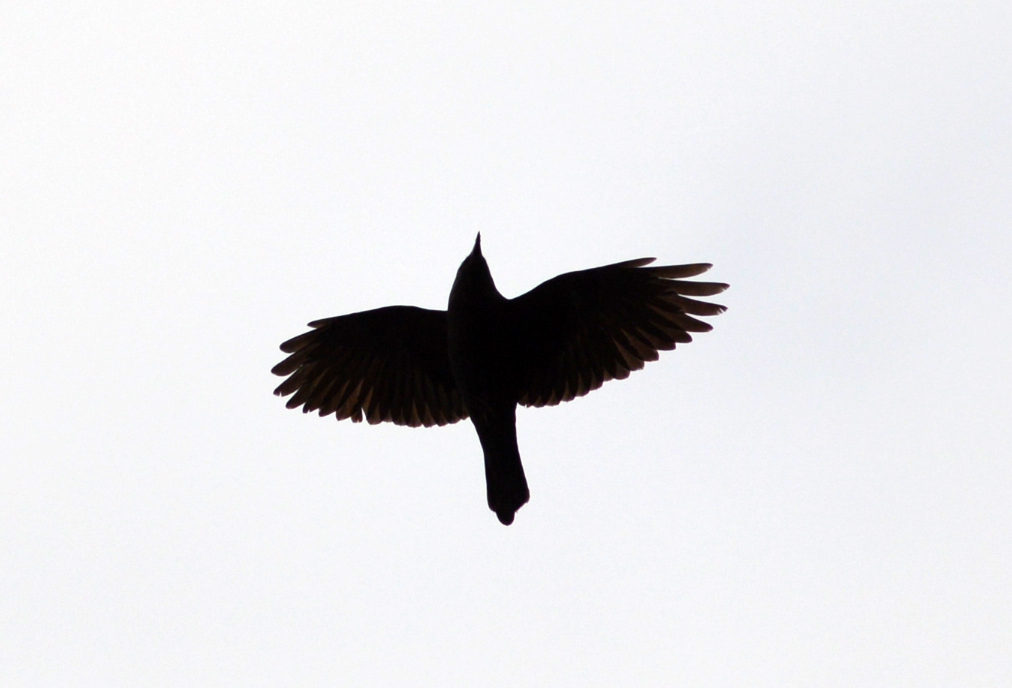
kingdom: Animalia
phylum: Chordata
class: Aves
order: Passeriformes
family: Corvidae
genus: Coloeus
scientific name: Coloeus monedula
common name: Western jackdaw
